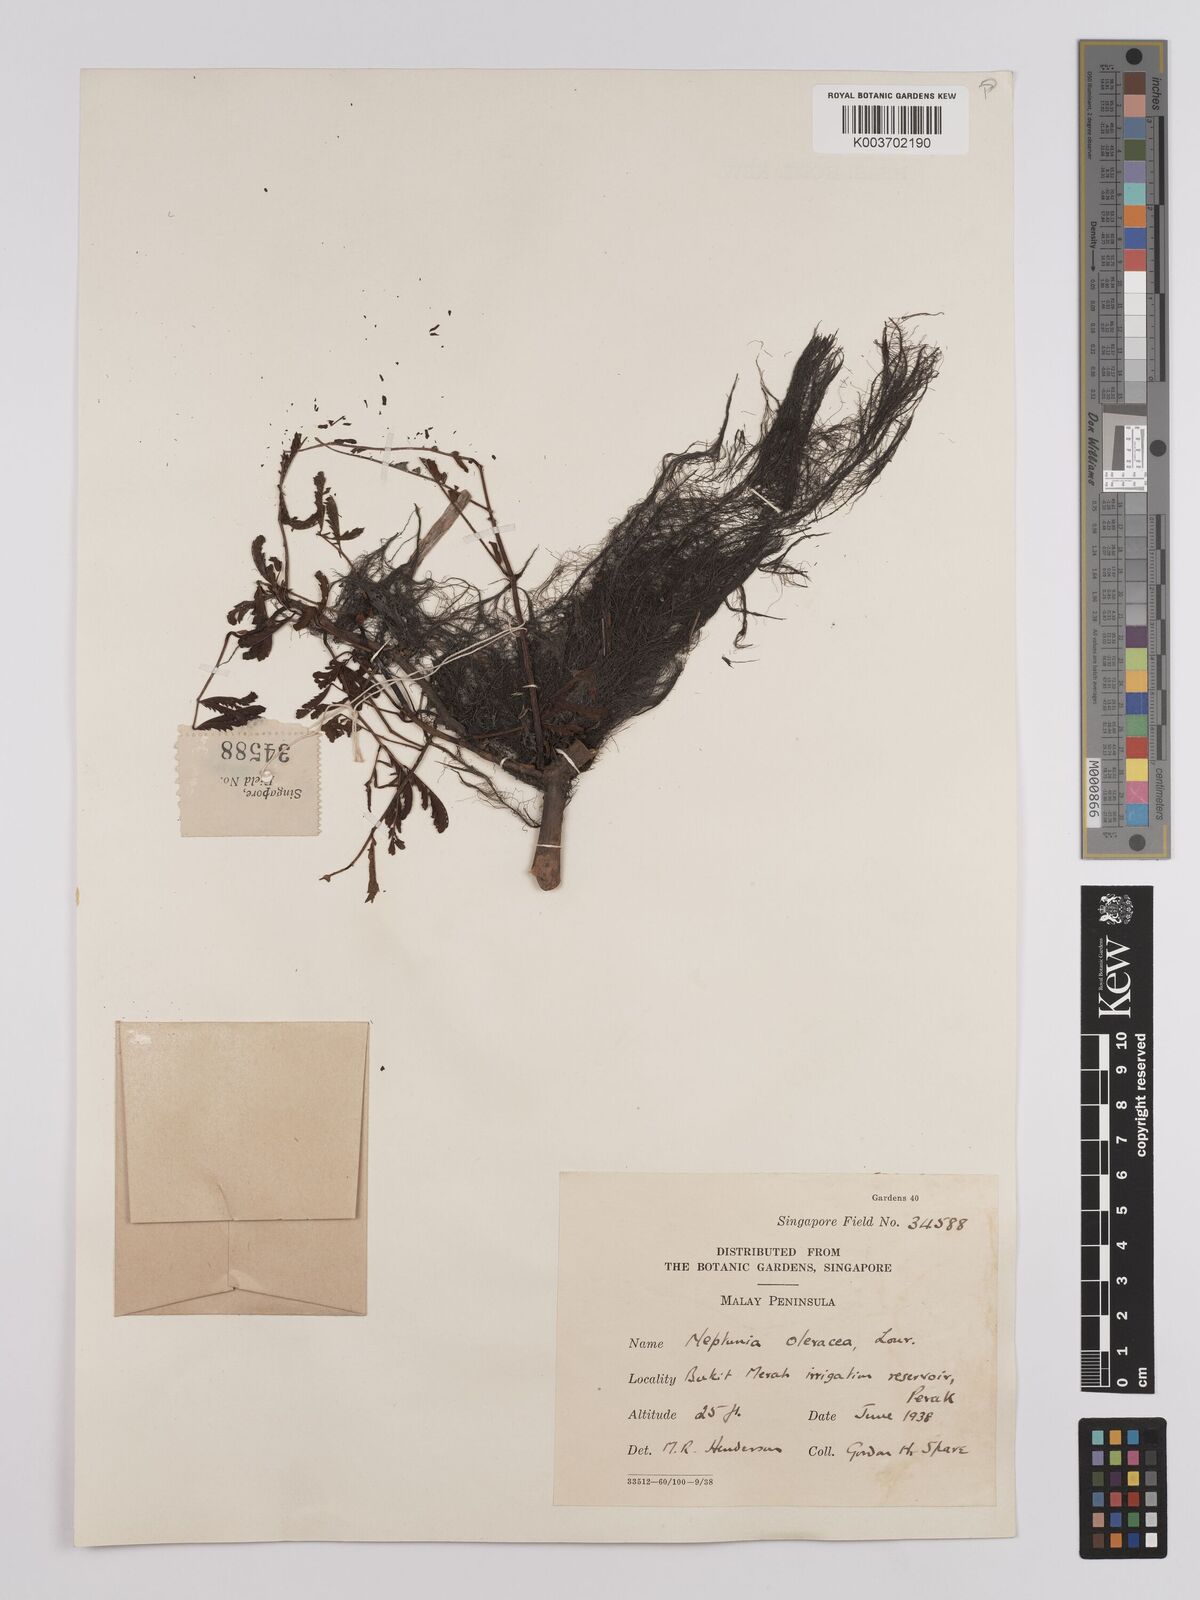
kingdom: Plantae
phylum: Tracheophyta
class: Magnoliopsida
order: Fabales
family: Fabaceae
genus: Neptunia
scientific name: Neptunia prostrata
